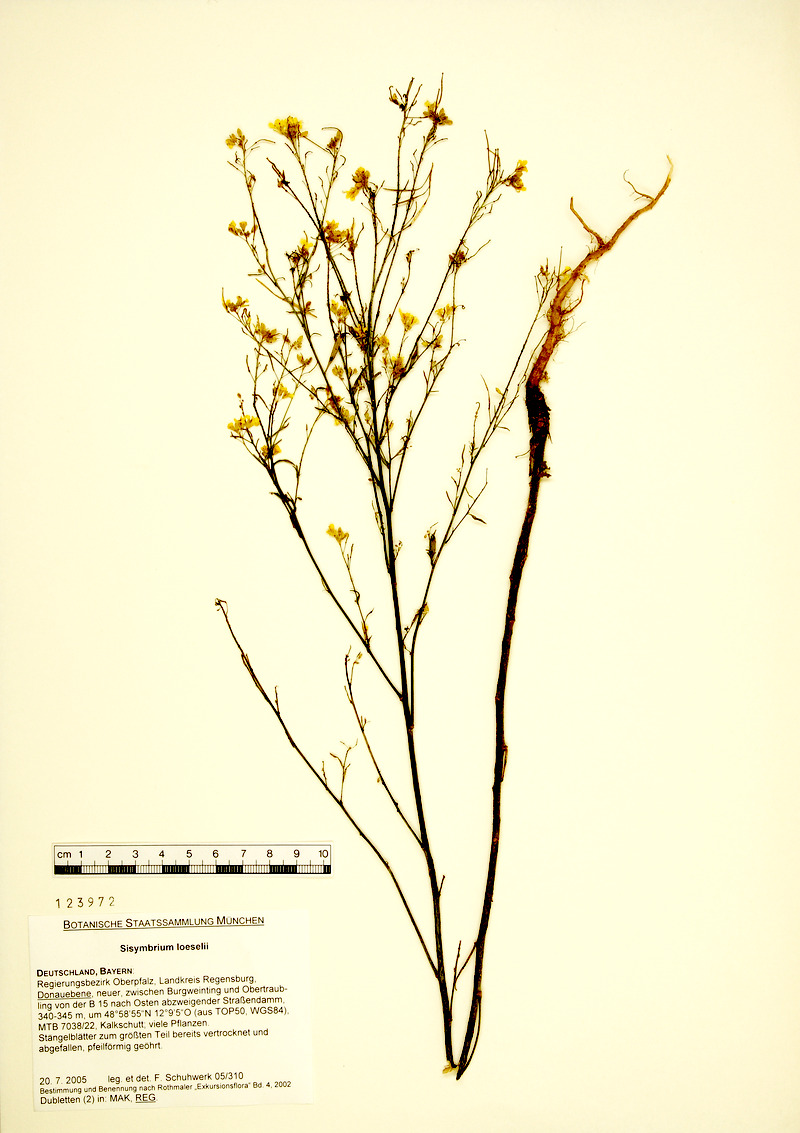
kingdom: Plantae
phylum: Tracheophyta
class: Magnoliopsida
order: Brassicales
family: Brassicaceae
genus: Sisymbrium
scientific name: Sisymbrium loeselii
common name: False london-rocket
